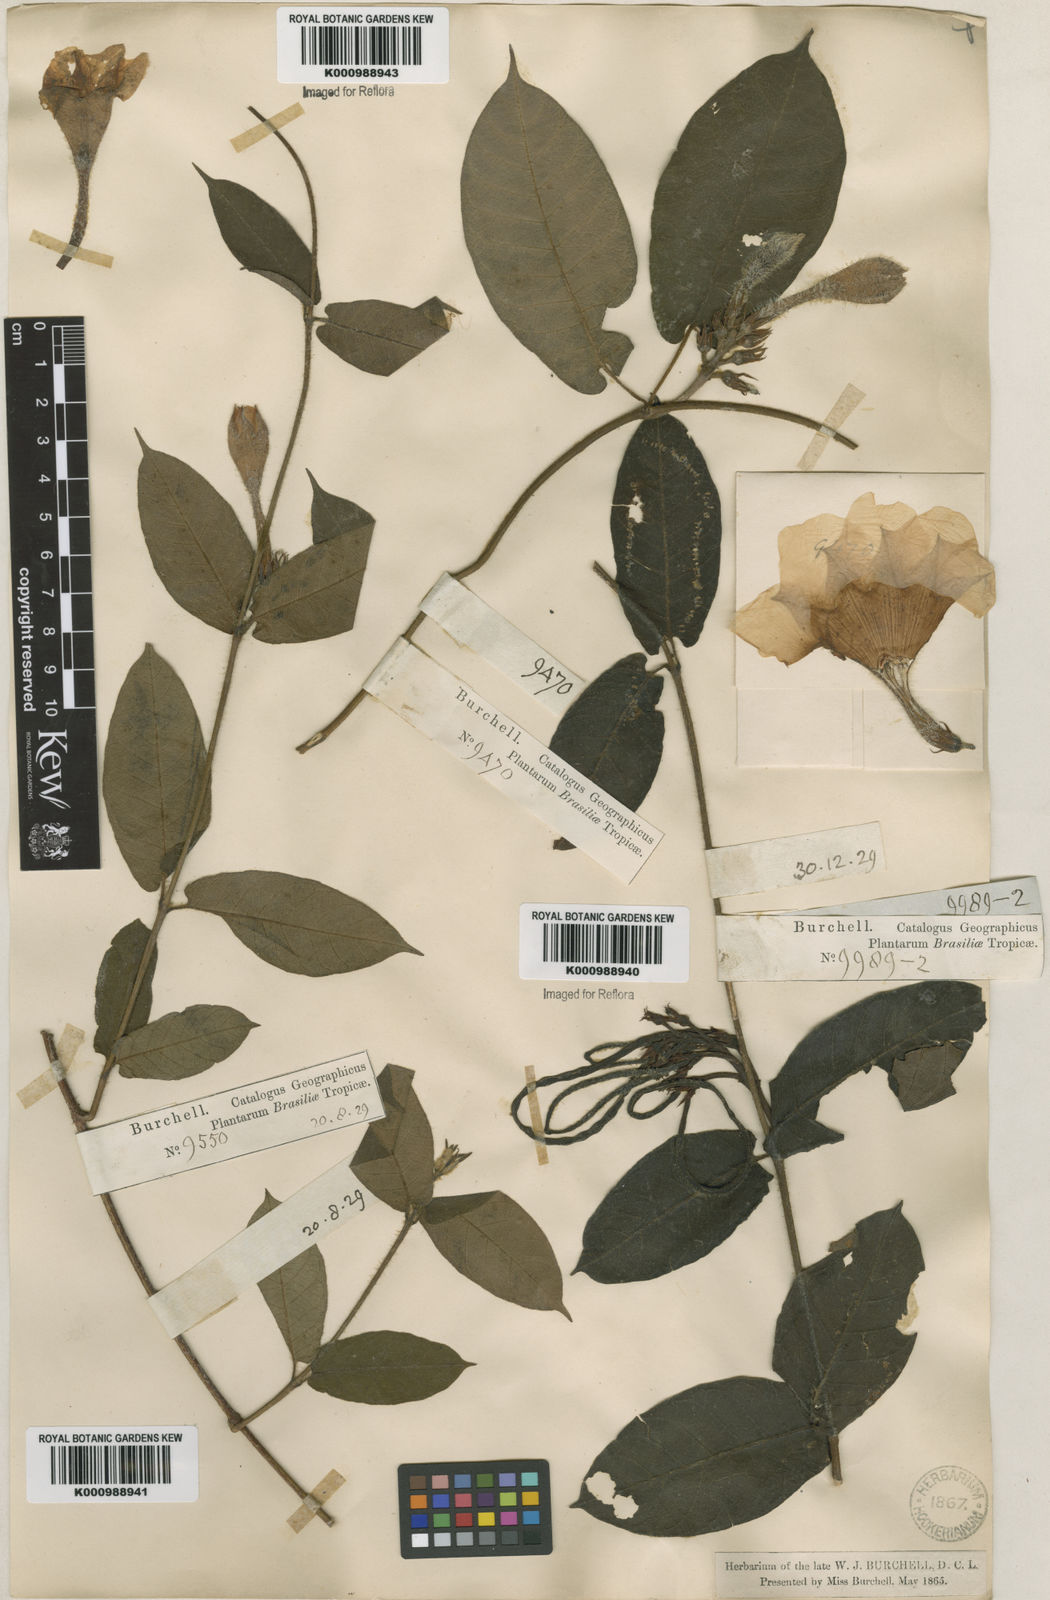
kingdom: Plantae
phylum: Tracheophyta
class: Magnoliopsida
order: Gentianales
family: Apocynaceae
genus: Mandevilla
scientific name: Mandevilla hirsuta
